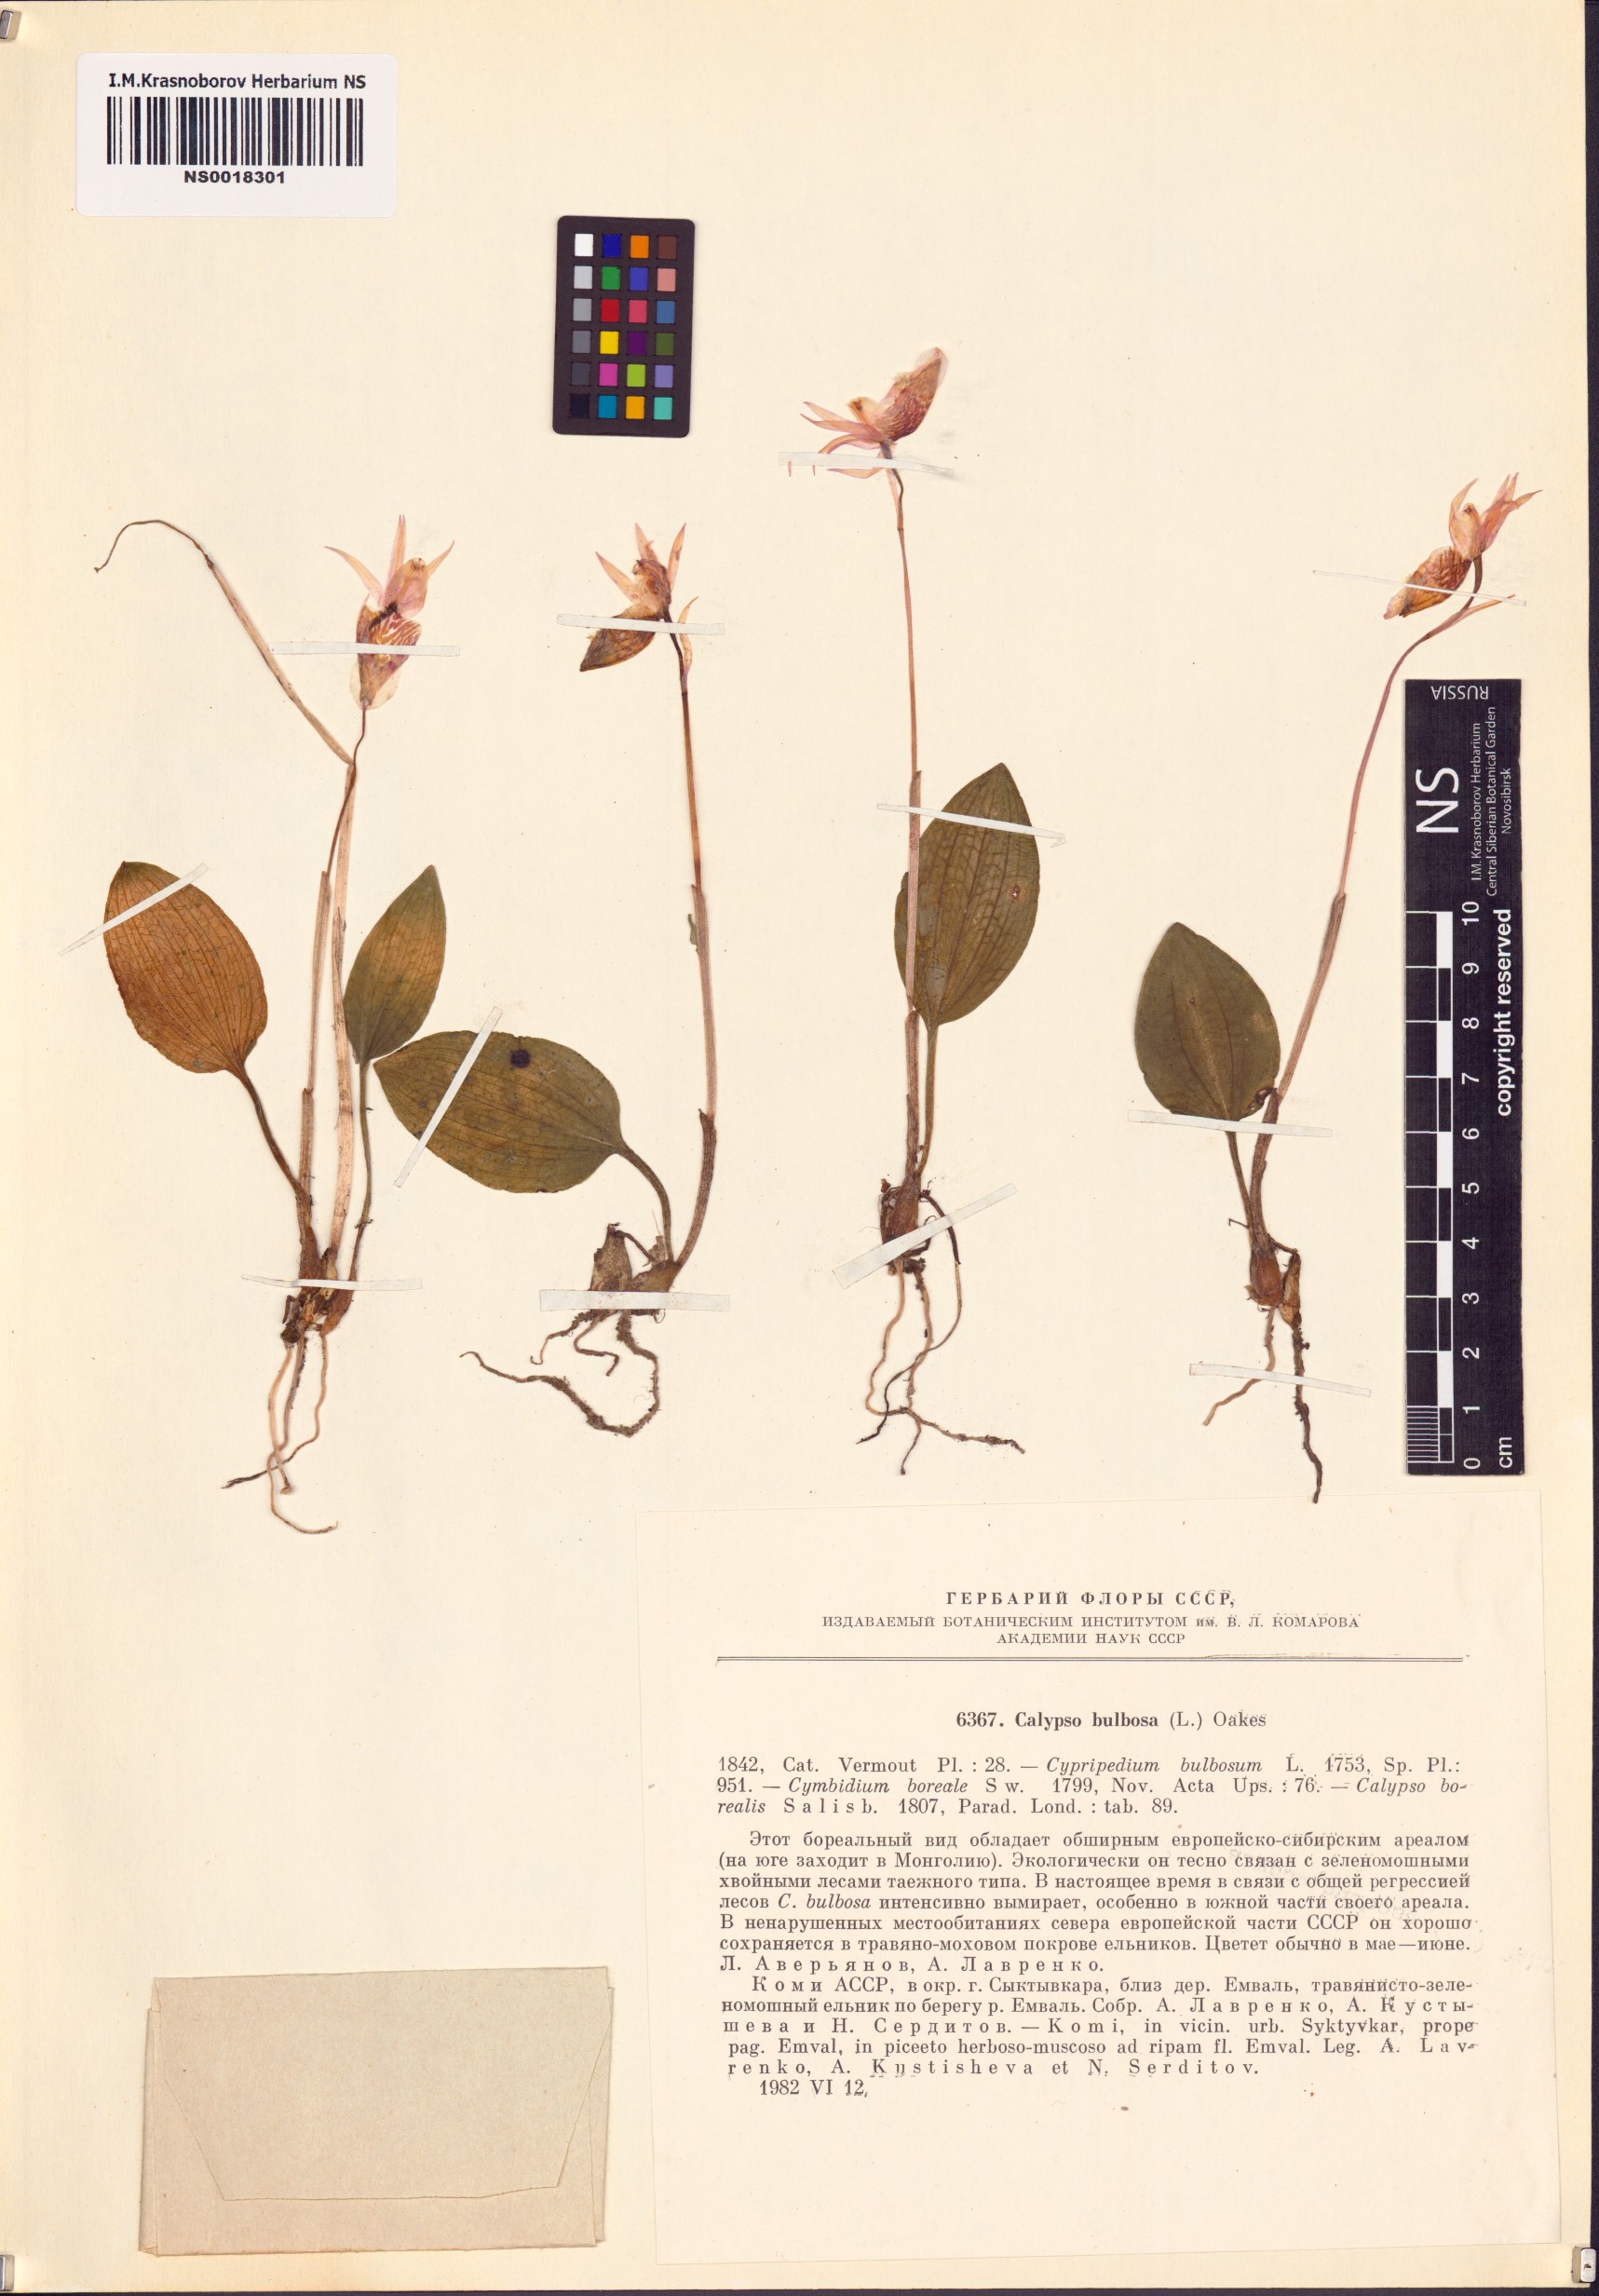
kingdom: Plantae
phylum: Tracheophyta
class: Liliopsida
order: Asparagales
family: Orchidaceae
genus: Calypso
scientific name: Calypso bulbosa
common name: Calypso
